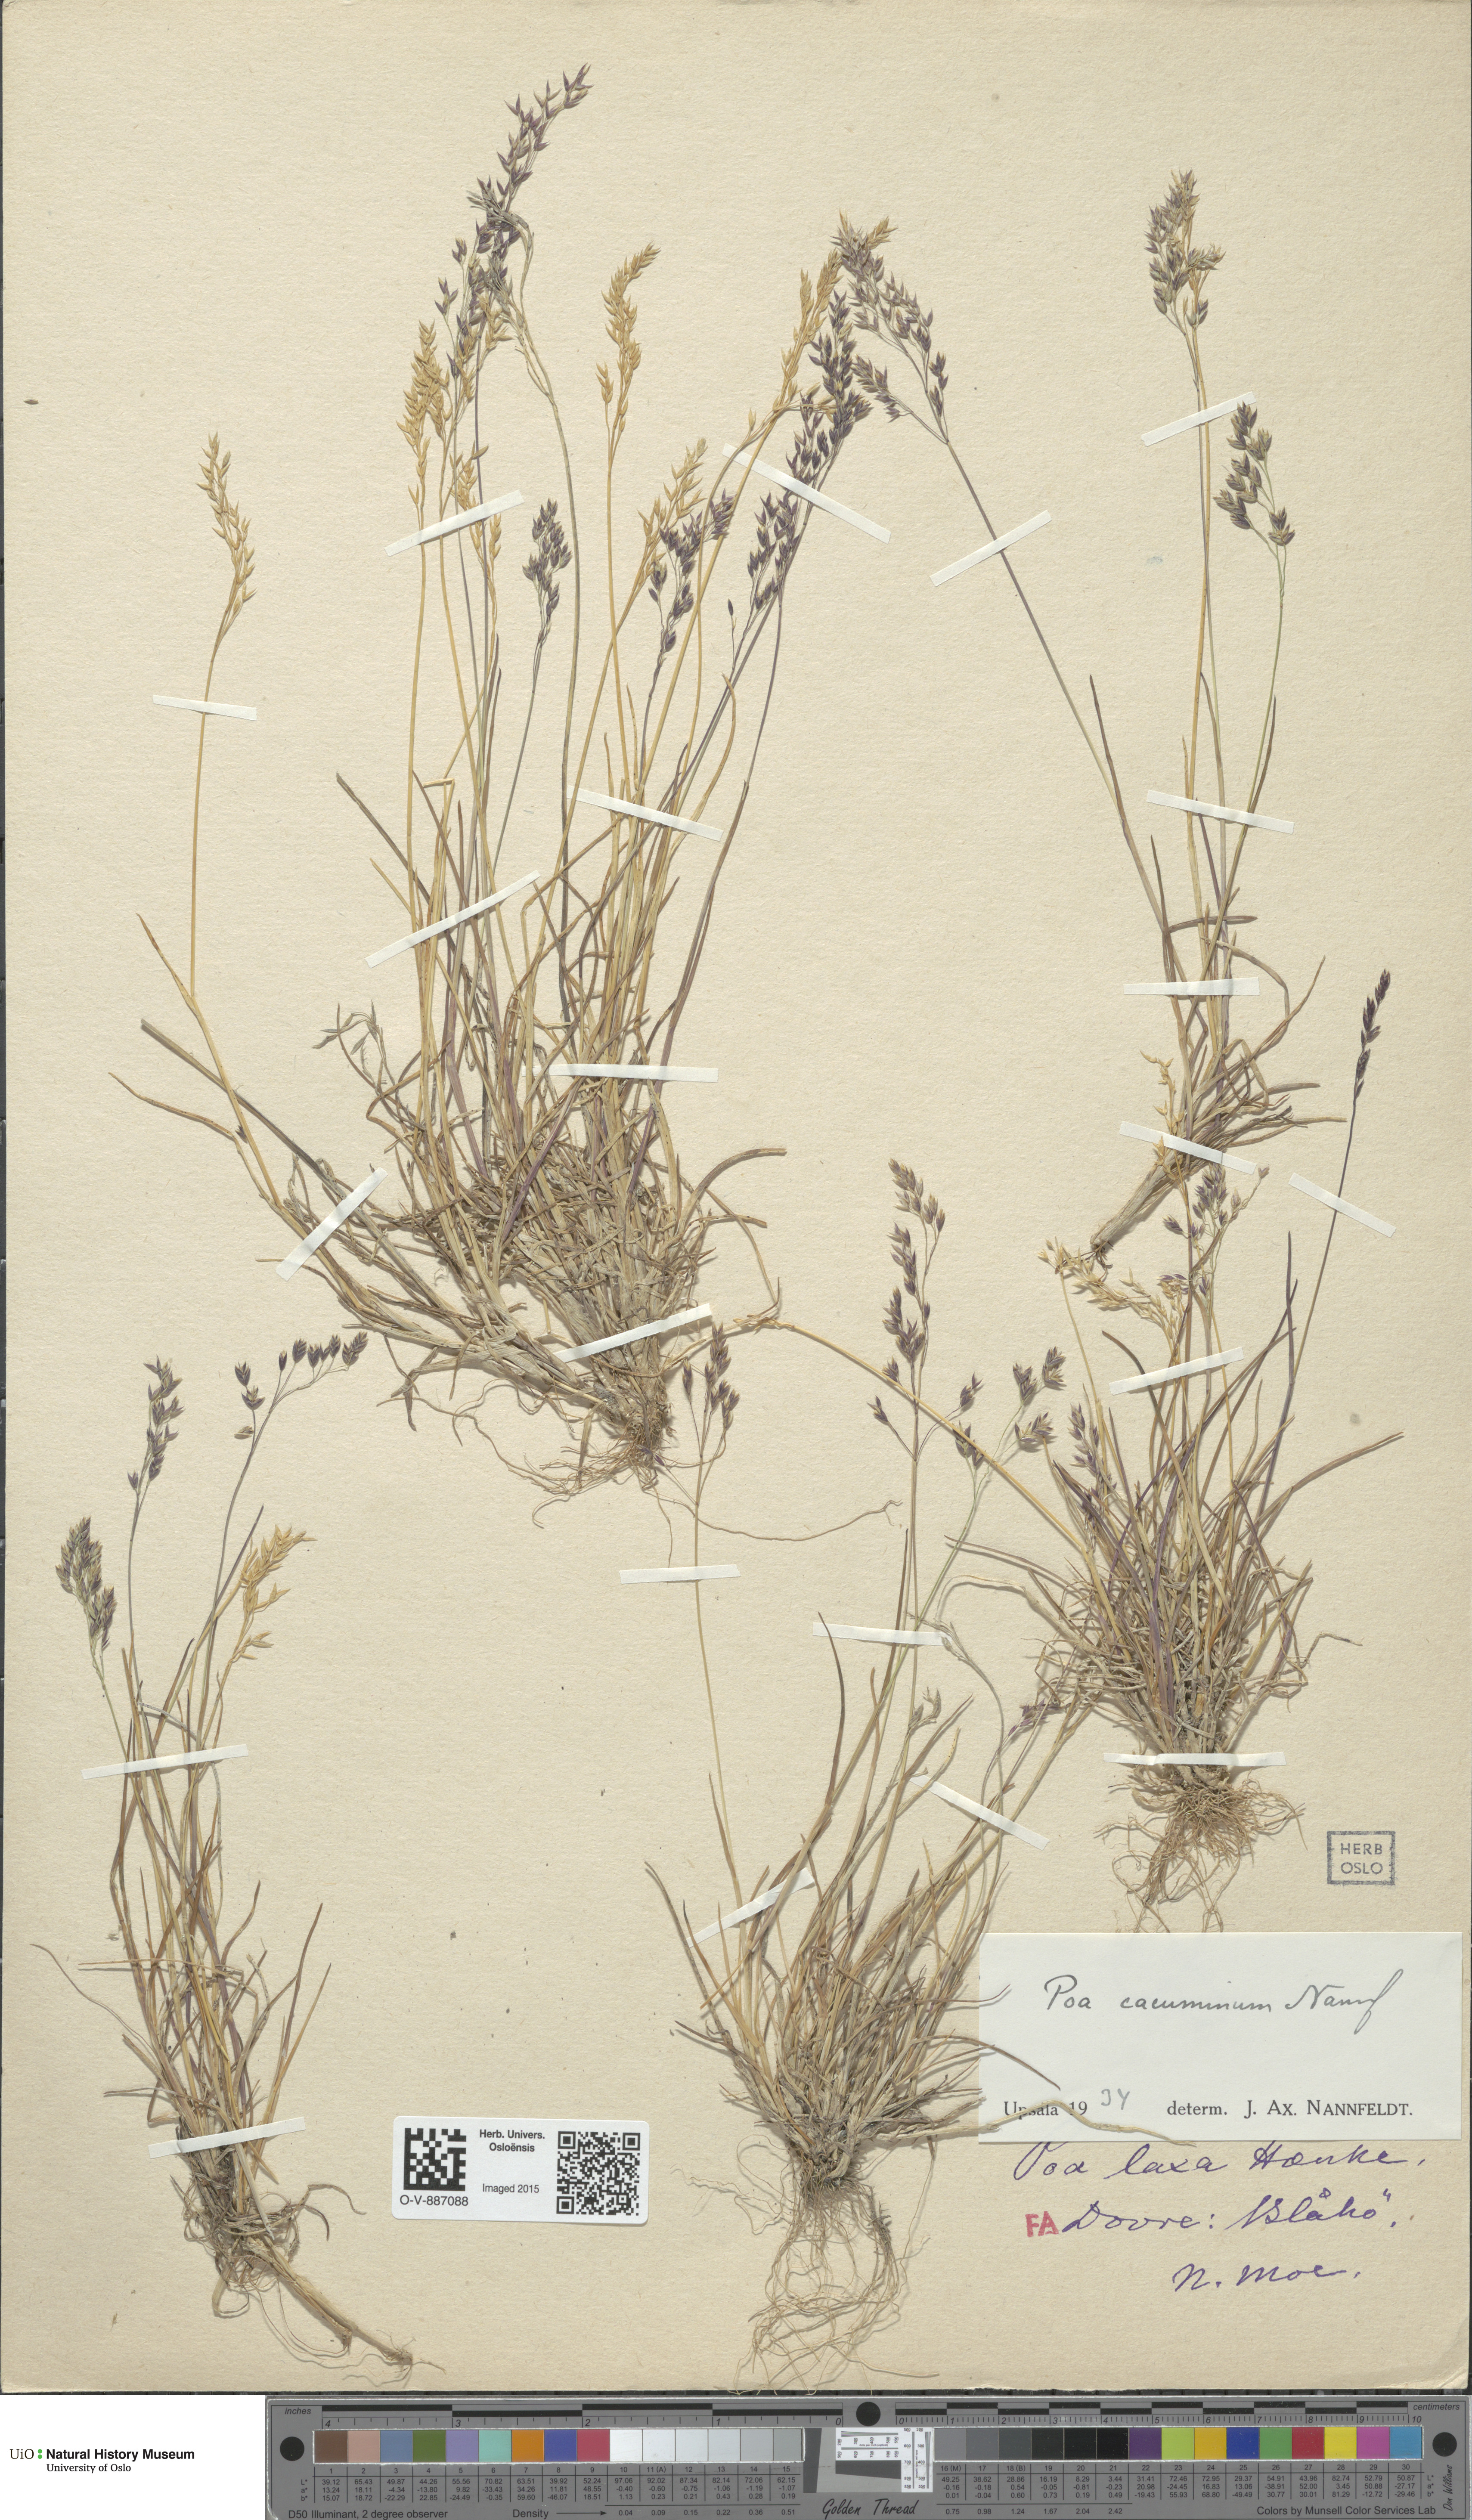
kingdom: Plantae
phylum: Tracheophyta
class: Liliopsida
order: Poales
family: Poaceae
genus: Poa
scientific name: Poa flexuosa
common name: Wavy meadow-grass
